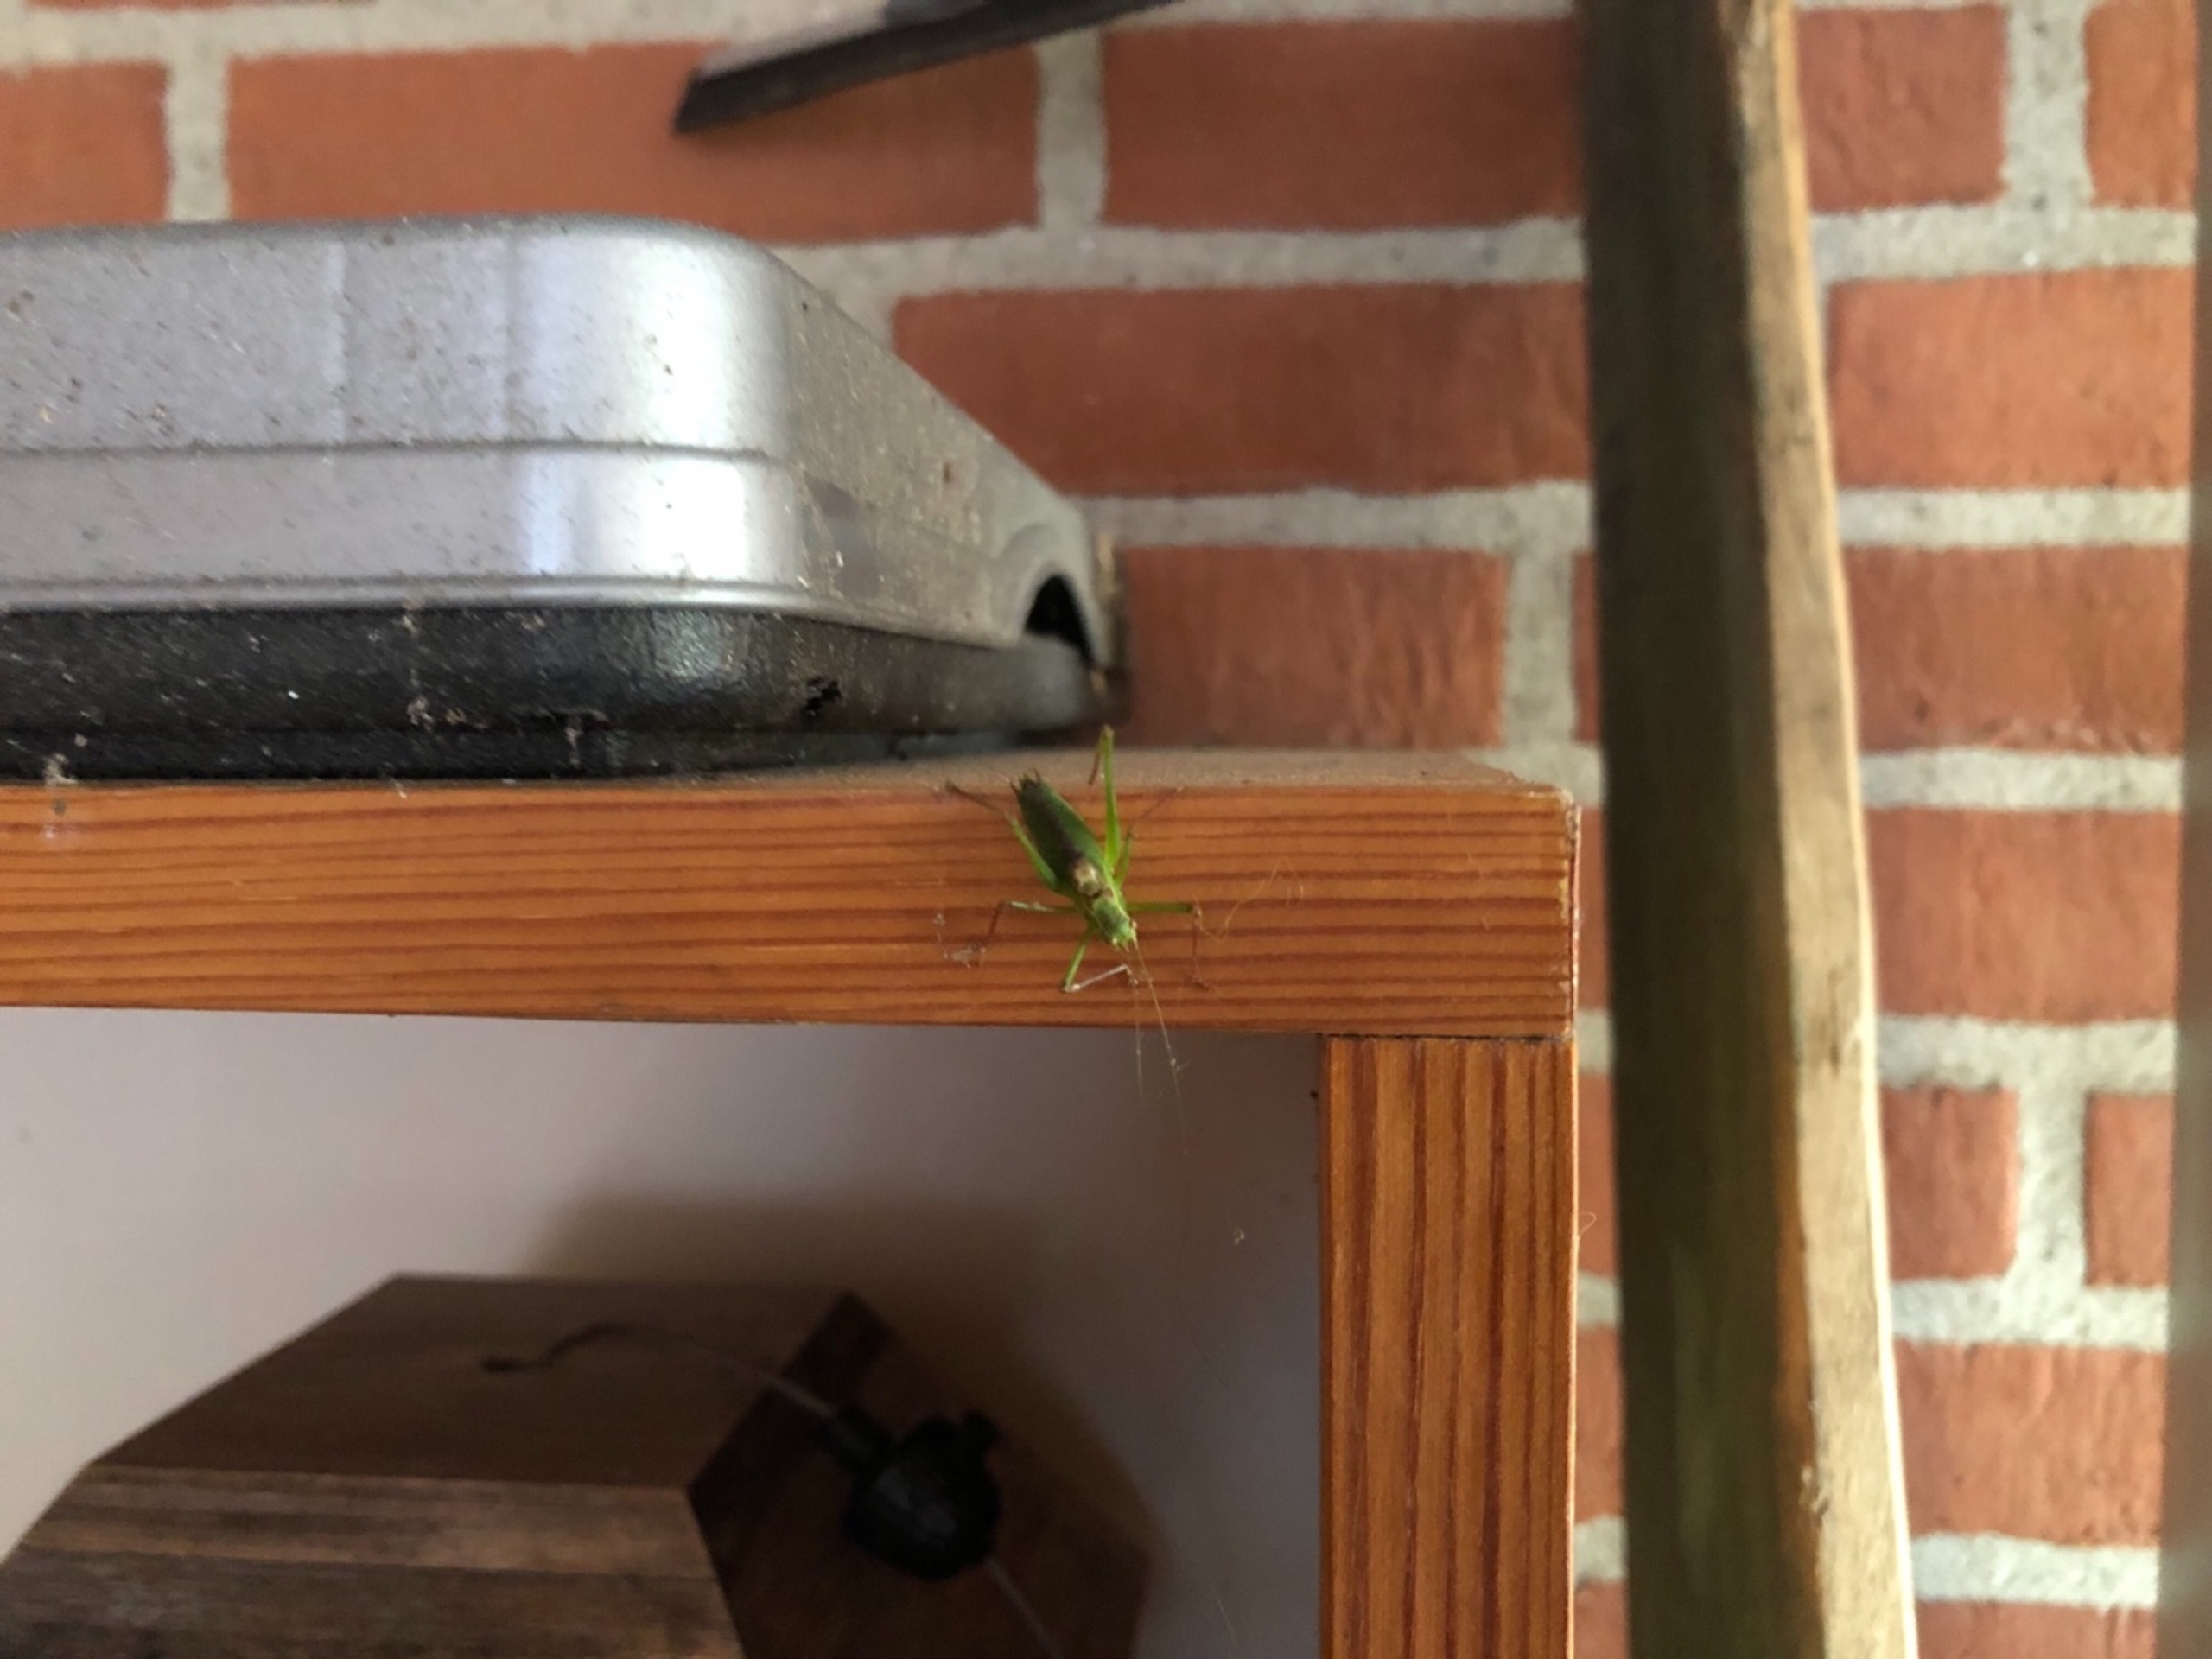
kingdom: Animalia
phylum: Arthropoda
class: Insecta
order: Orthoptera
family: Tettigoniidae
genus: Leptophyes
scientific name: Leptophyes punctatissima
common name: Krumknivgræshoppe
